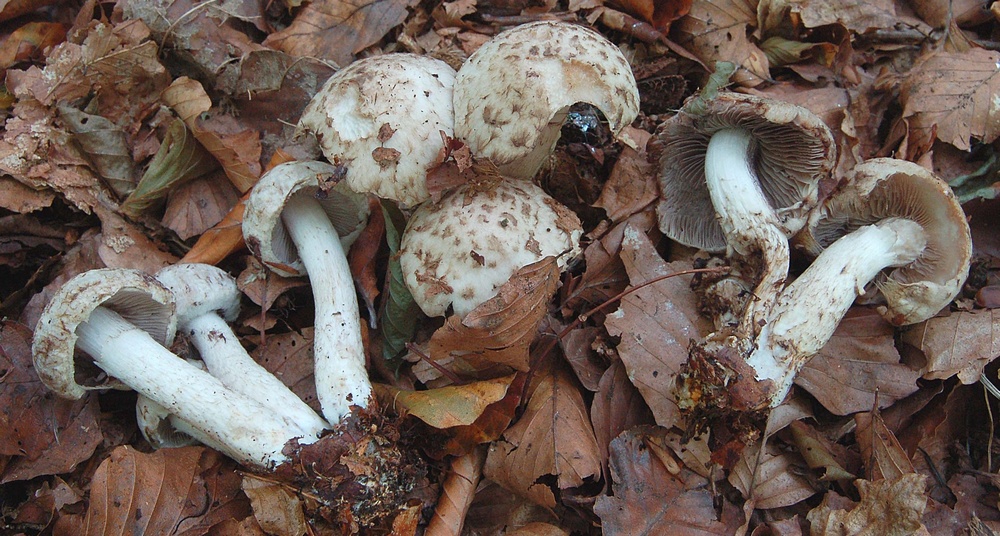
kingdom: Fungi
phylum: Basidiomycota
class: Agaricomycetes
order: Agaricales
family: Psathyrellaceae
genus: Psathyrella
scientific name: Psathyrella cotonea
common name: skællet mørkhat
